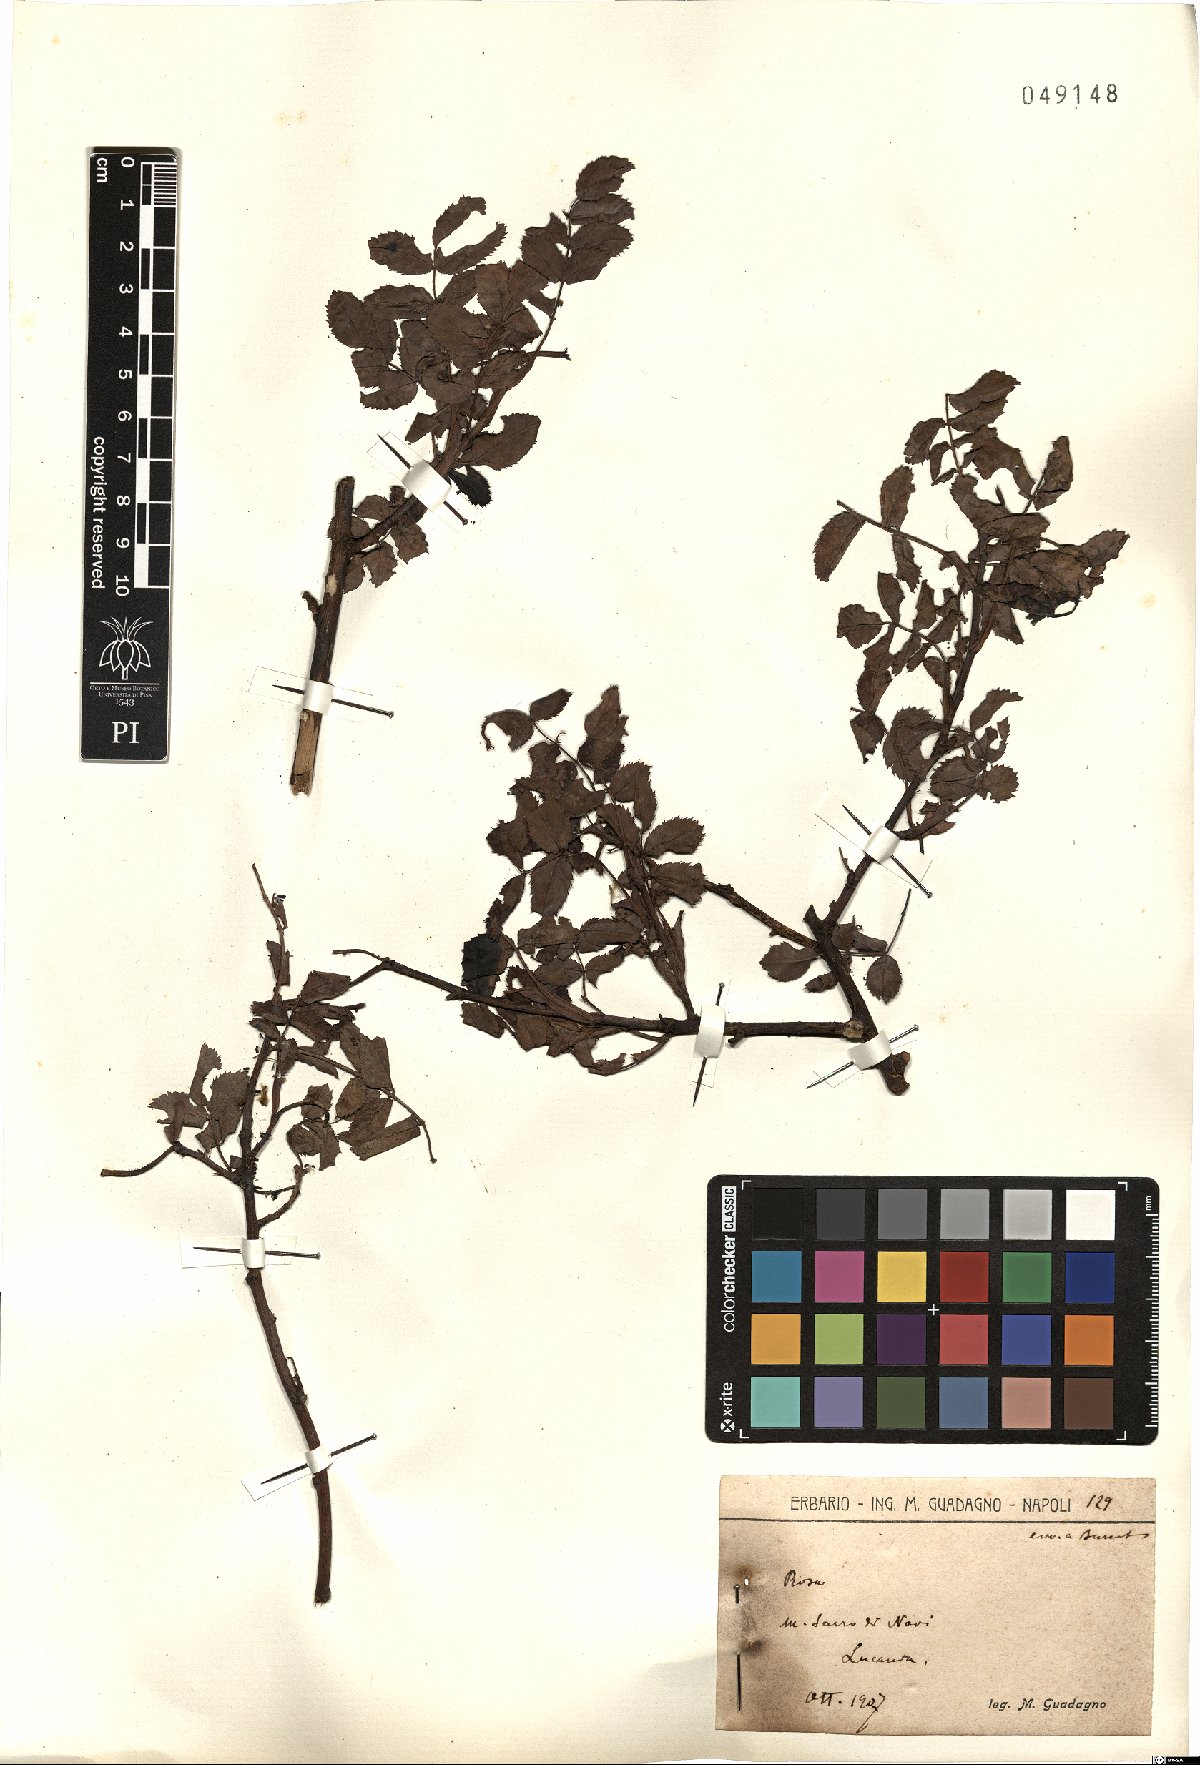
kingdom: Plantae
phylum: Tracheophyta
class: Magnoliopsida
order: Rosales
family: Rosaceae
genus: Rosa
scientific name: Rosa
